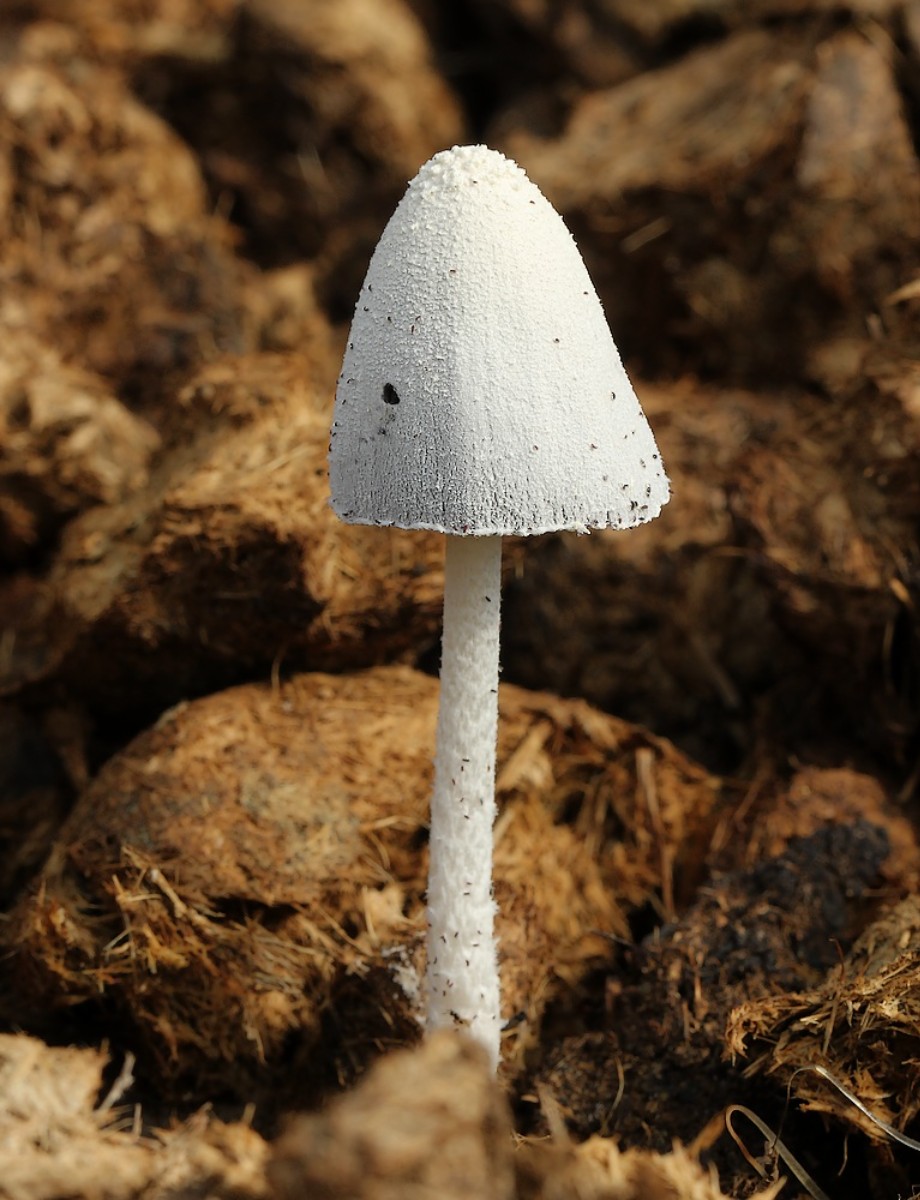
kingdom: Fungi
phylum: Basidiomycota
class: Agaricomycetes
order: Agaricales
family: Psathyrellaceae
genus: Coprinopsis
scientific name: Coprinopsis nivea
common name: snehvid blækhat
